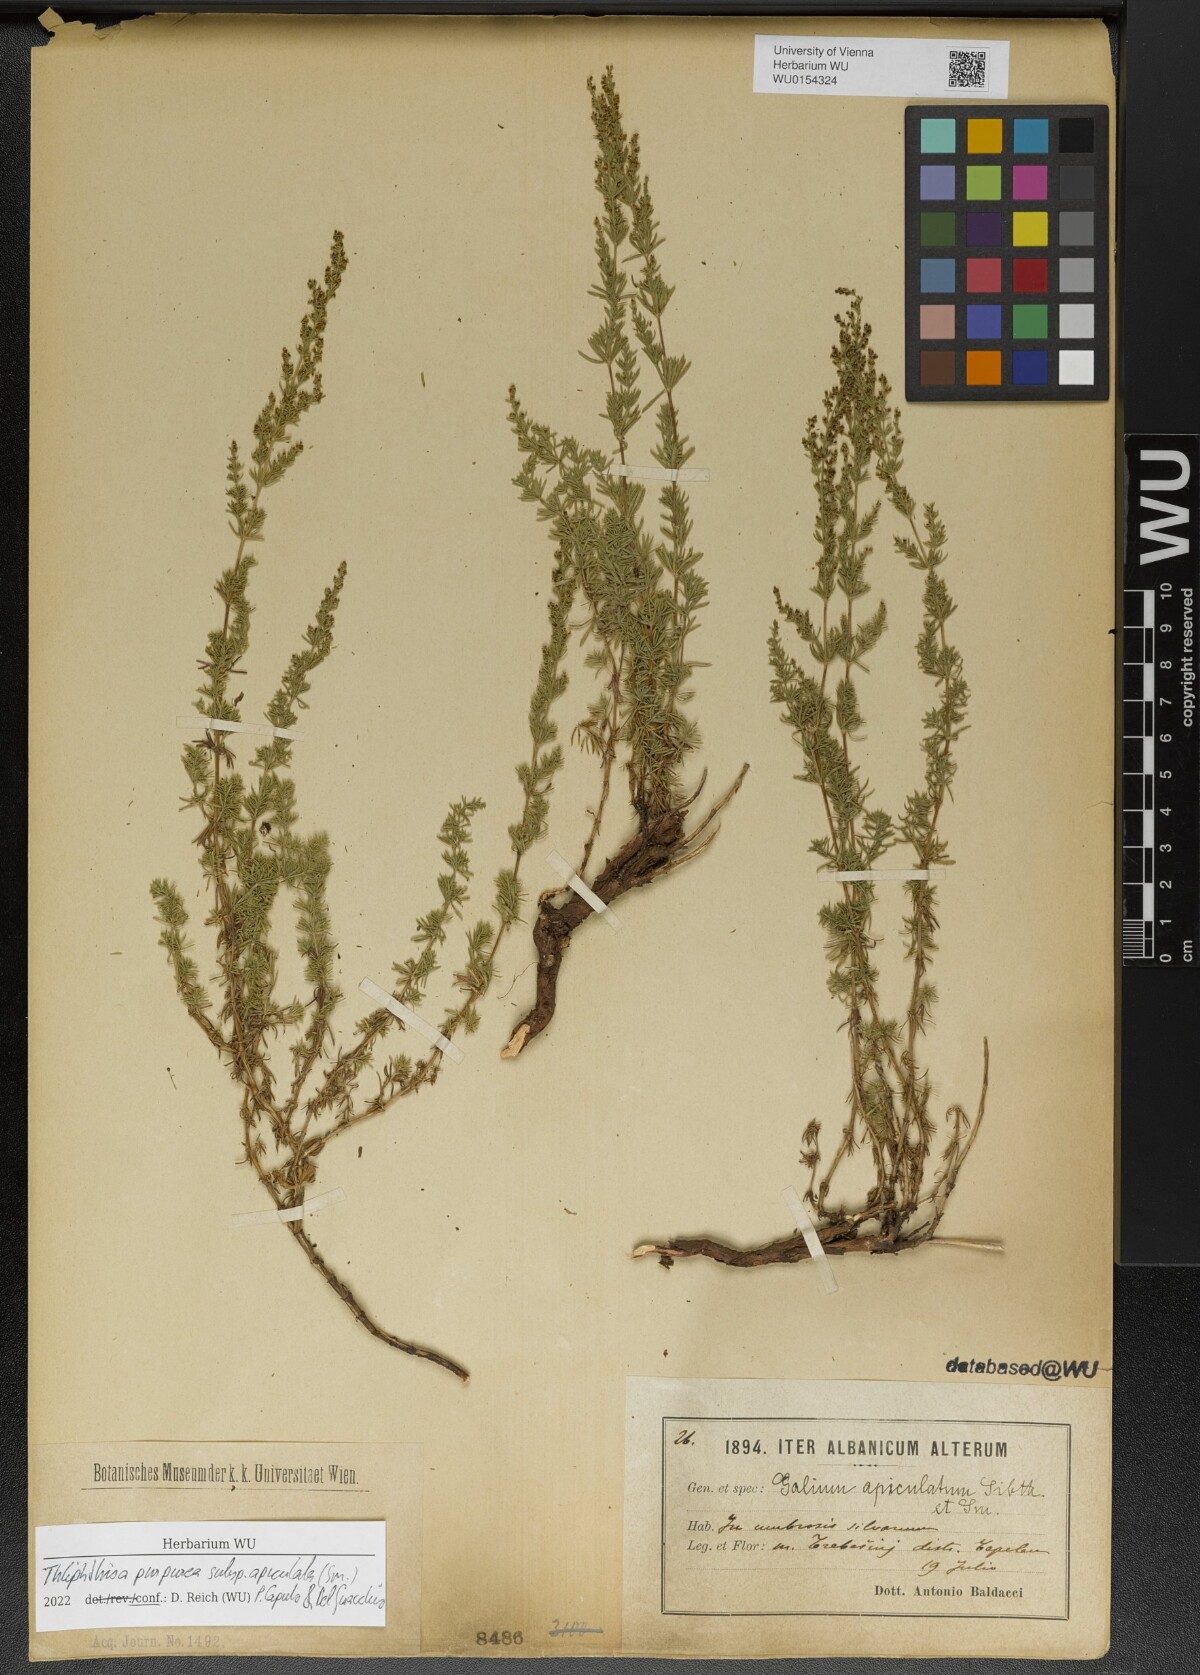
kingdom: Plantae
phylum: Tracheophyta
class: Magnoliopsida
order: Gentianales
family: Rubiaceae
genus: Thliphthisa
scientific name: Thliphthisa purpurea
